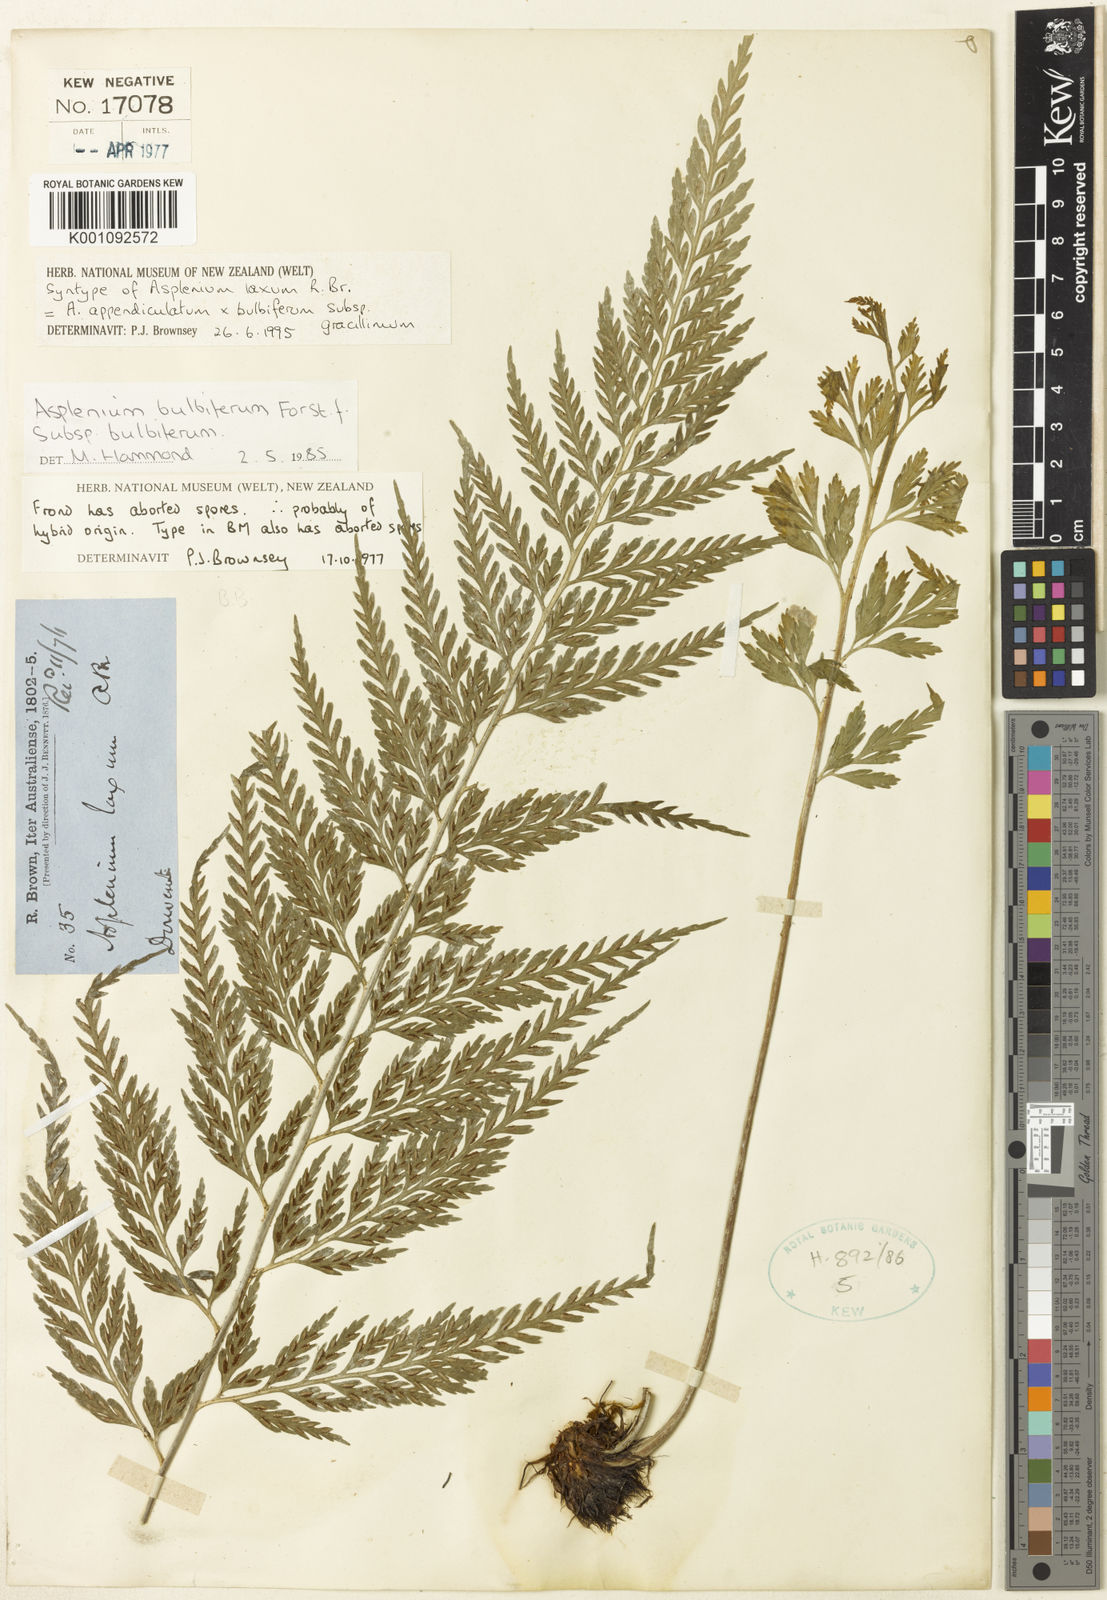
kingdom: Plantae
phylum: Tracheophyta
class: Polypodiopsida
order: Polypodiales
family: Aspleniaceae
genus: Asplenium
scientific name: Asplenium bulbiferum
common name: Mother fern
